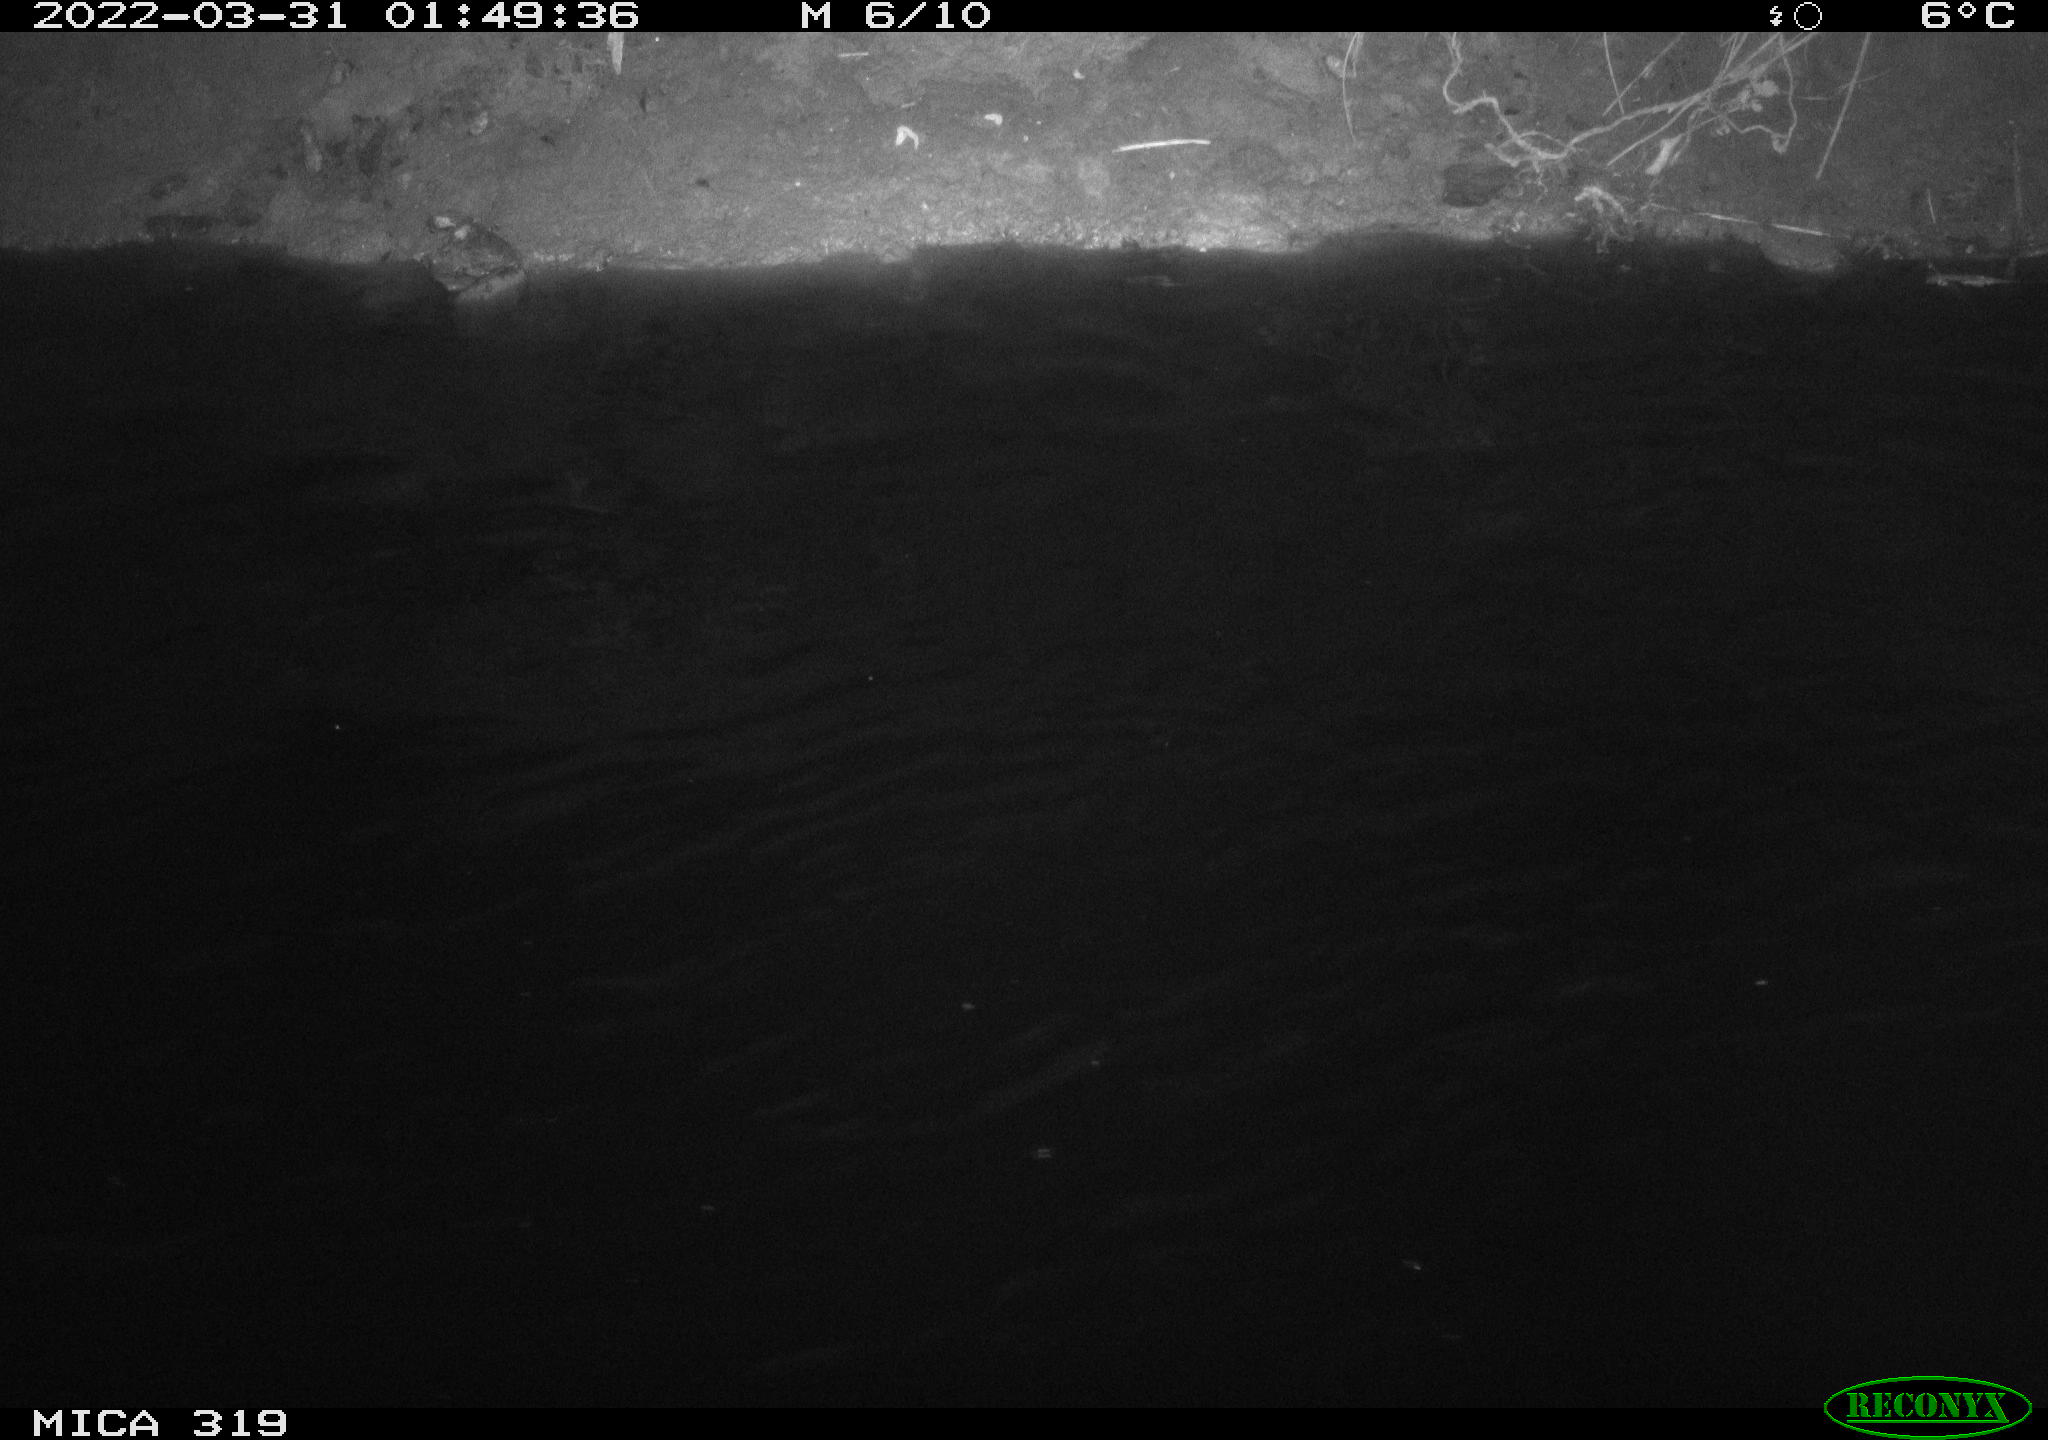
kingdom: Animalia
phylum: Chordata
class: Aves
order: Anseriformes
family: Anatidae
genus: Anas
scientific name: Anas platyrhynchos
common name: Mallard
